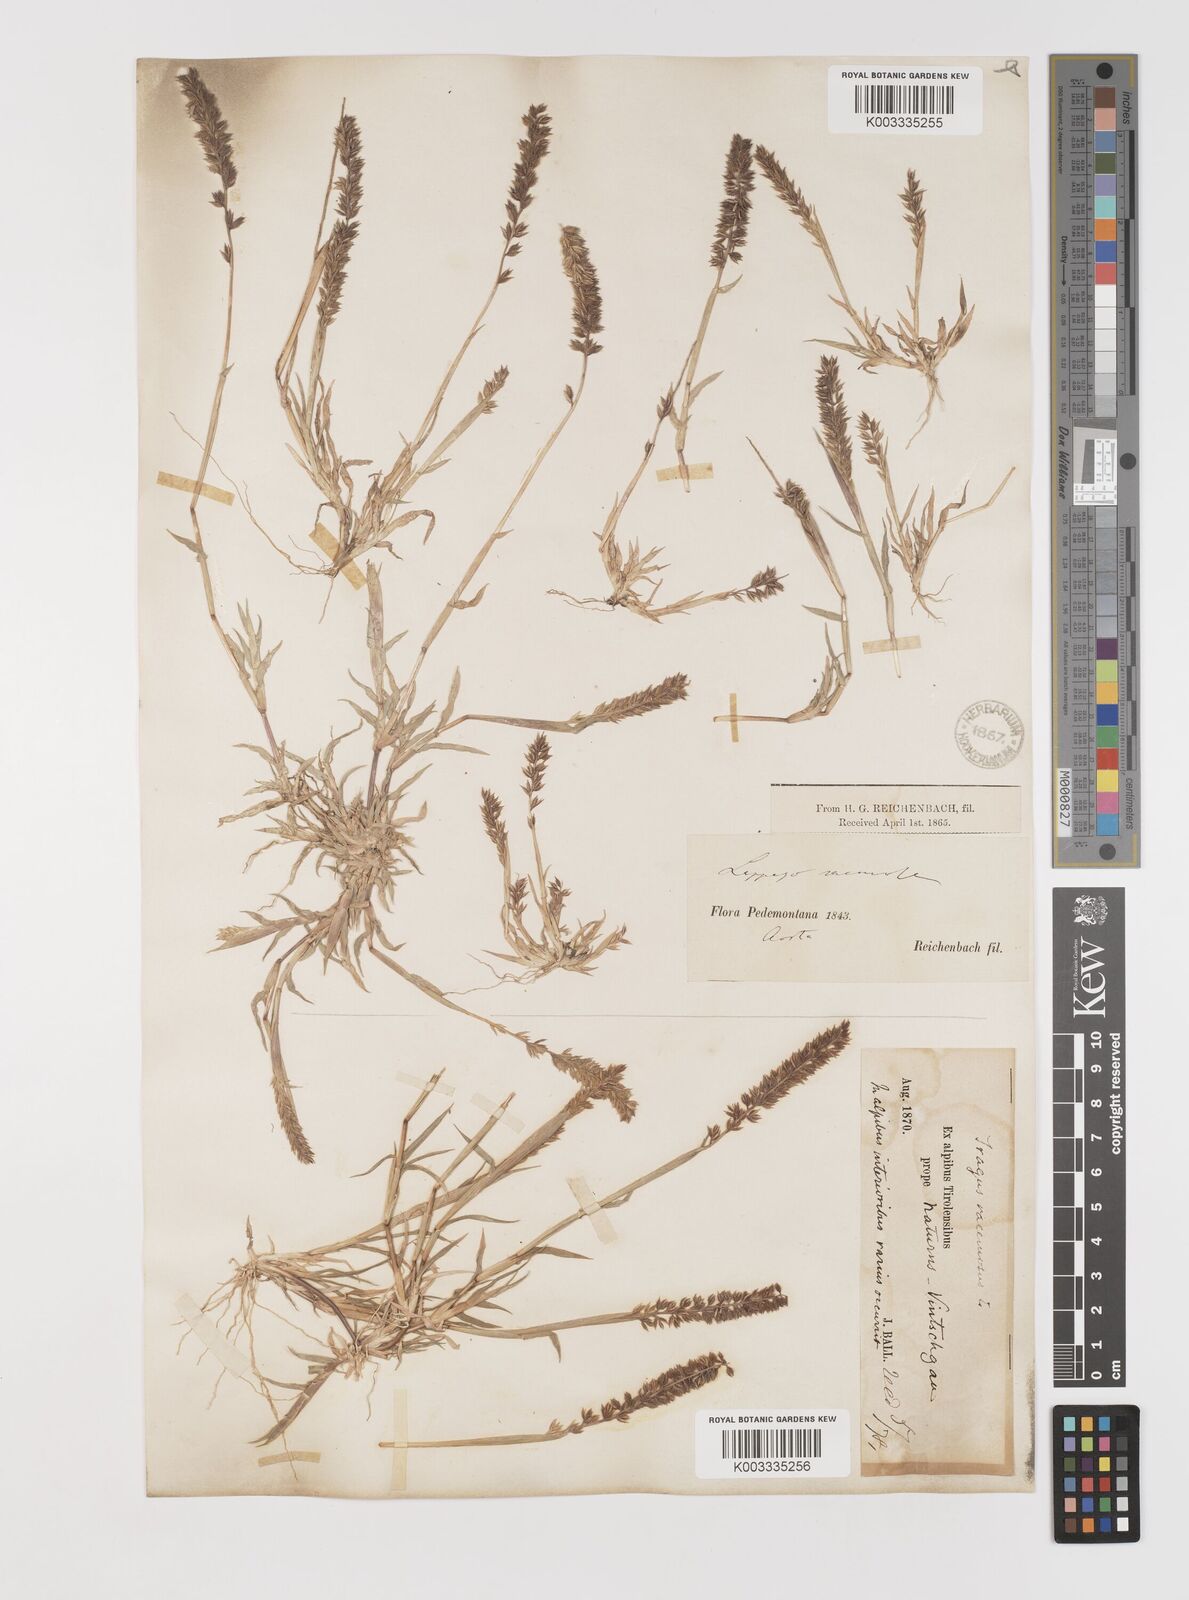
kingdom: Plantae
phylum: Tracheophyta
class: Liliopsida
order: Poales
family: Poaceae
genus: Tragus
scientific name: Tragus racemosus
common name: European bur-grass
